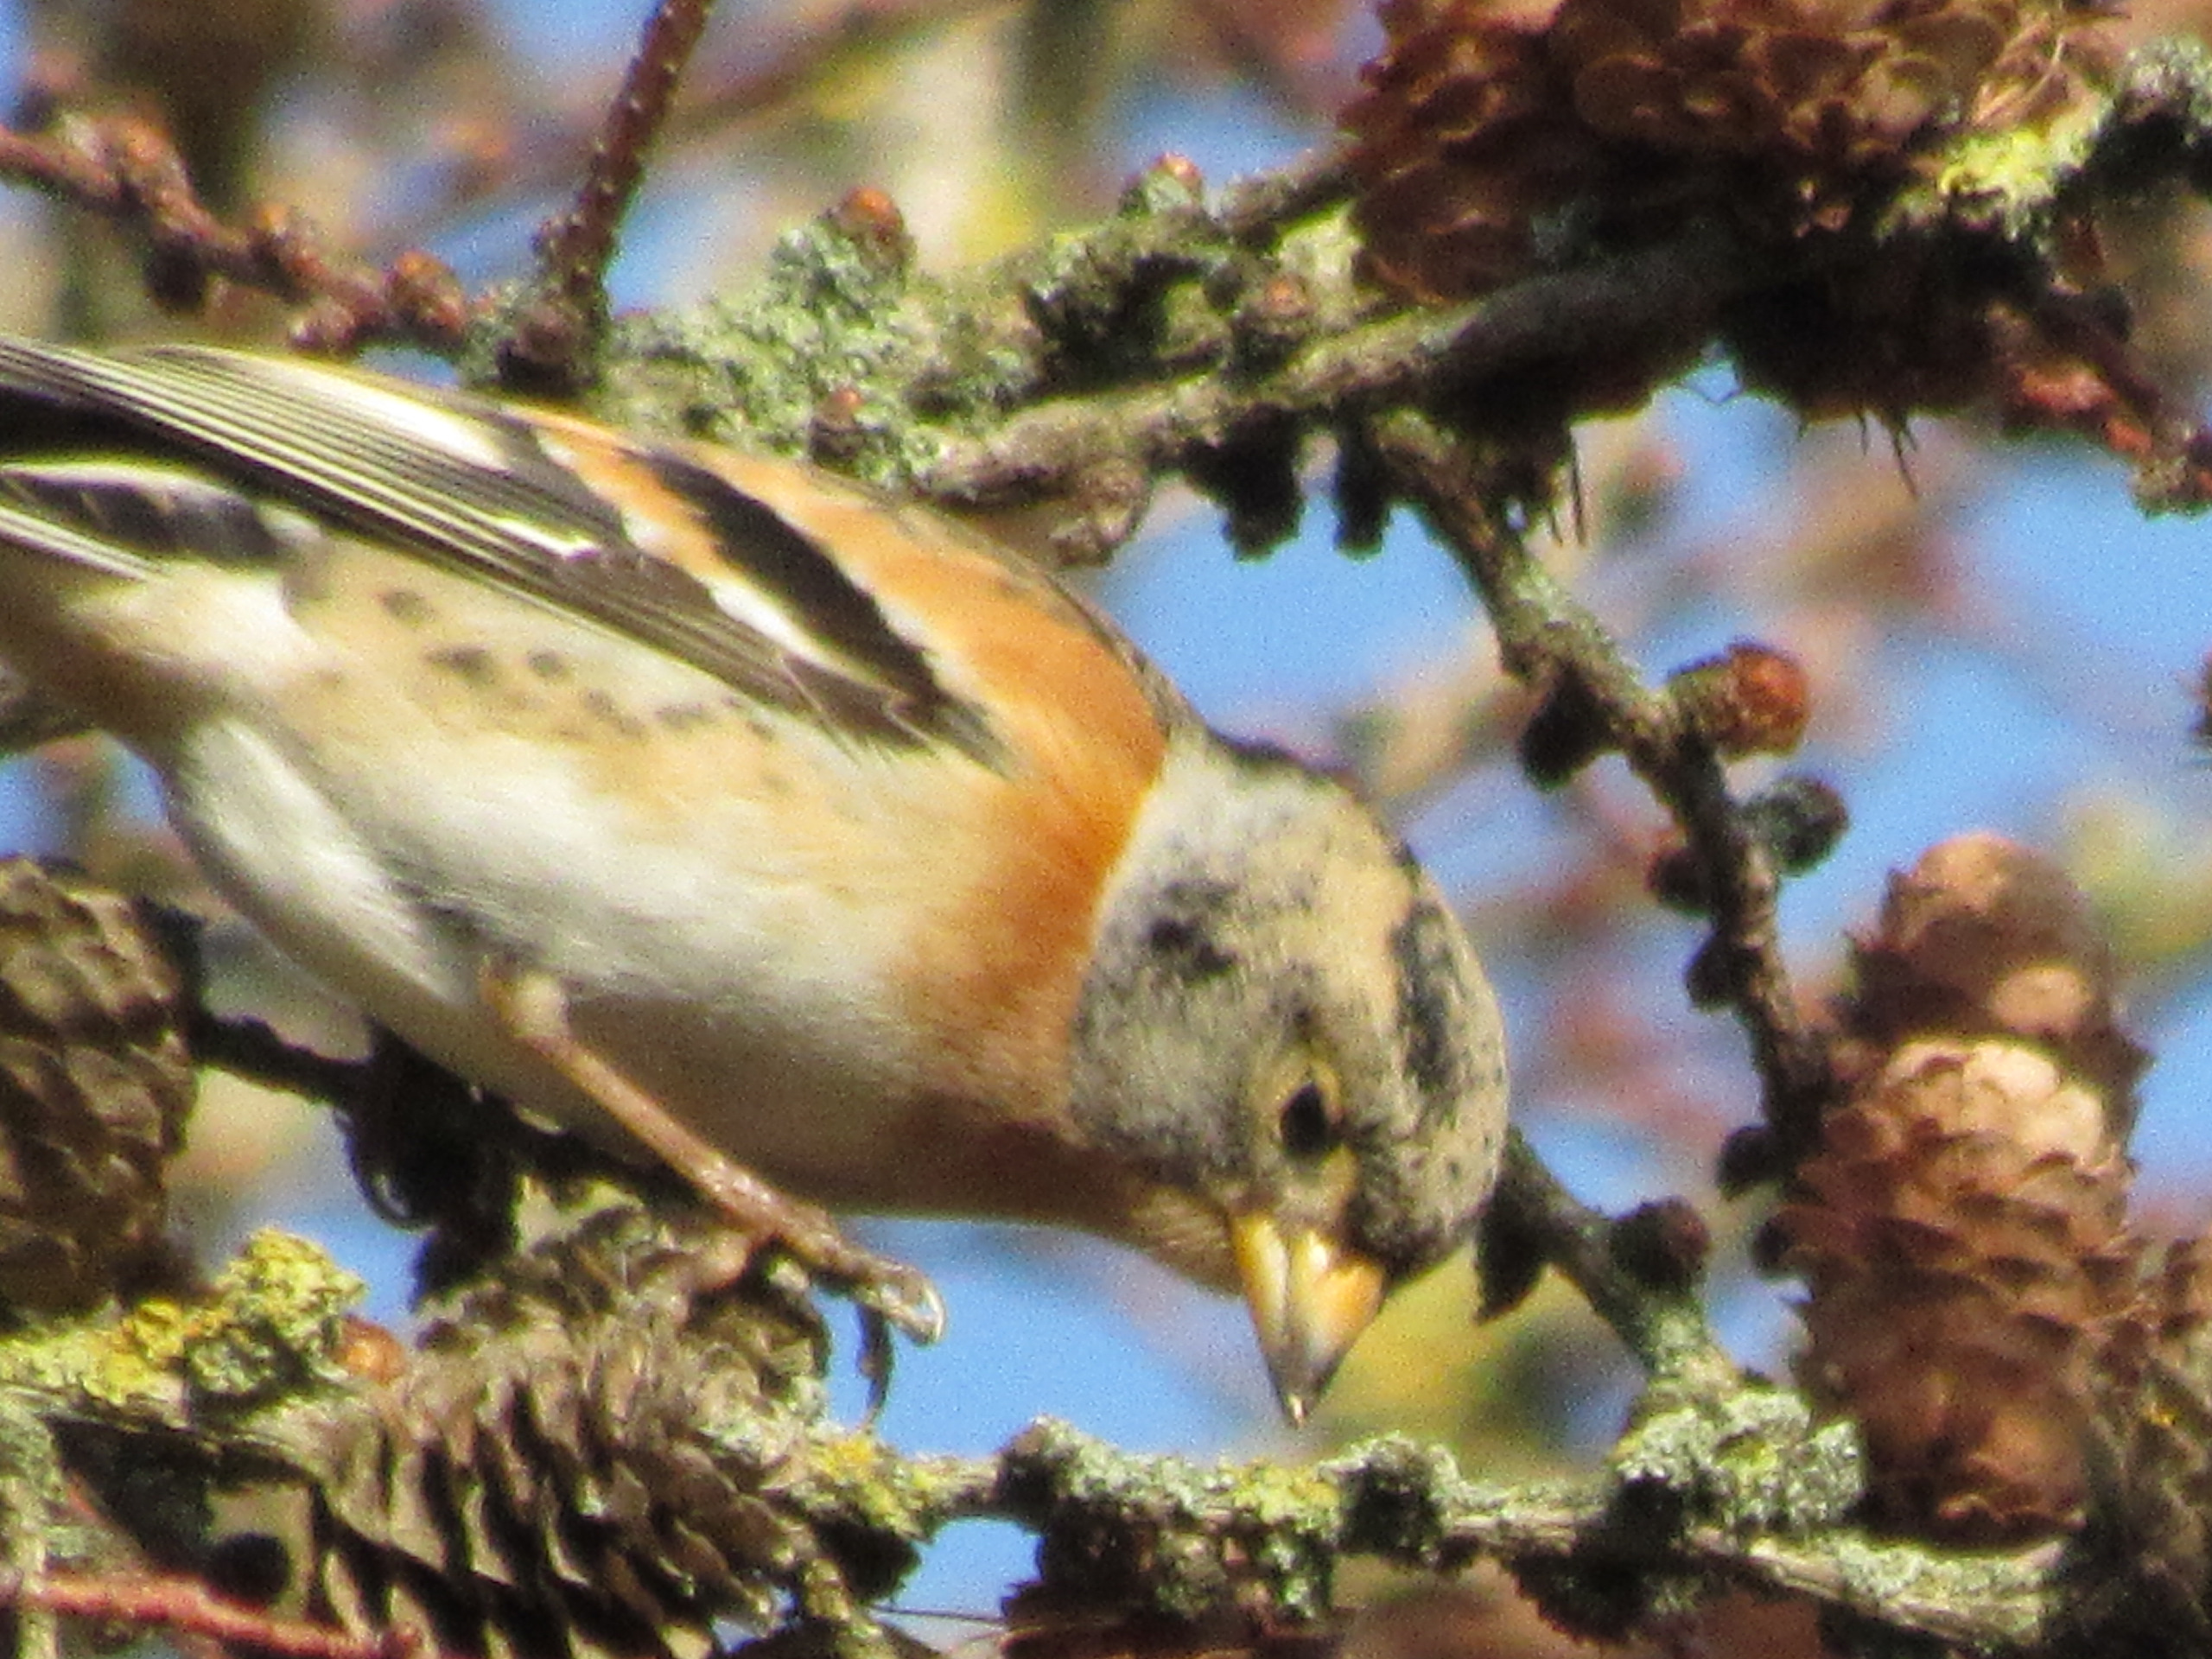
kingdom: Animalia
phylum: Chordata
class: Aves
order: Passeriformes
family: Fringillidae
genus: Fringilla
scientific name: Fringilla montifringilla
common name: Kvækerfinke
